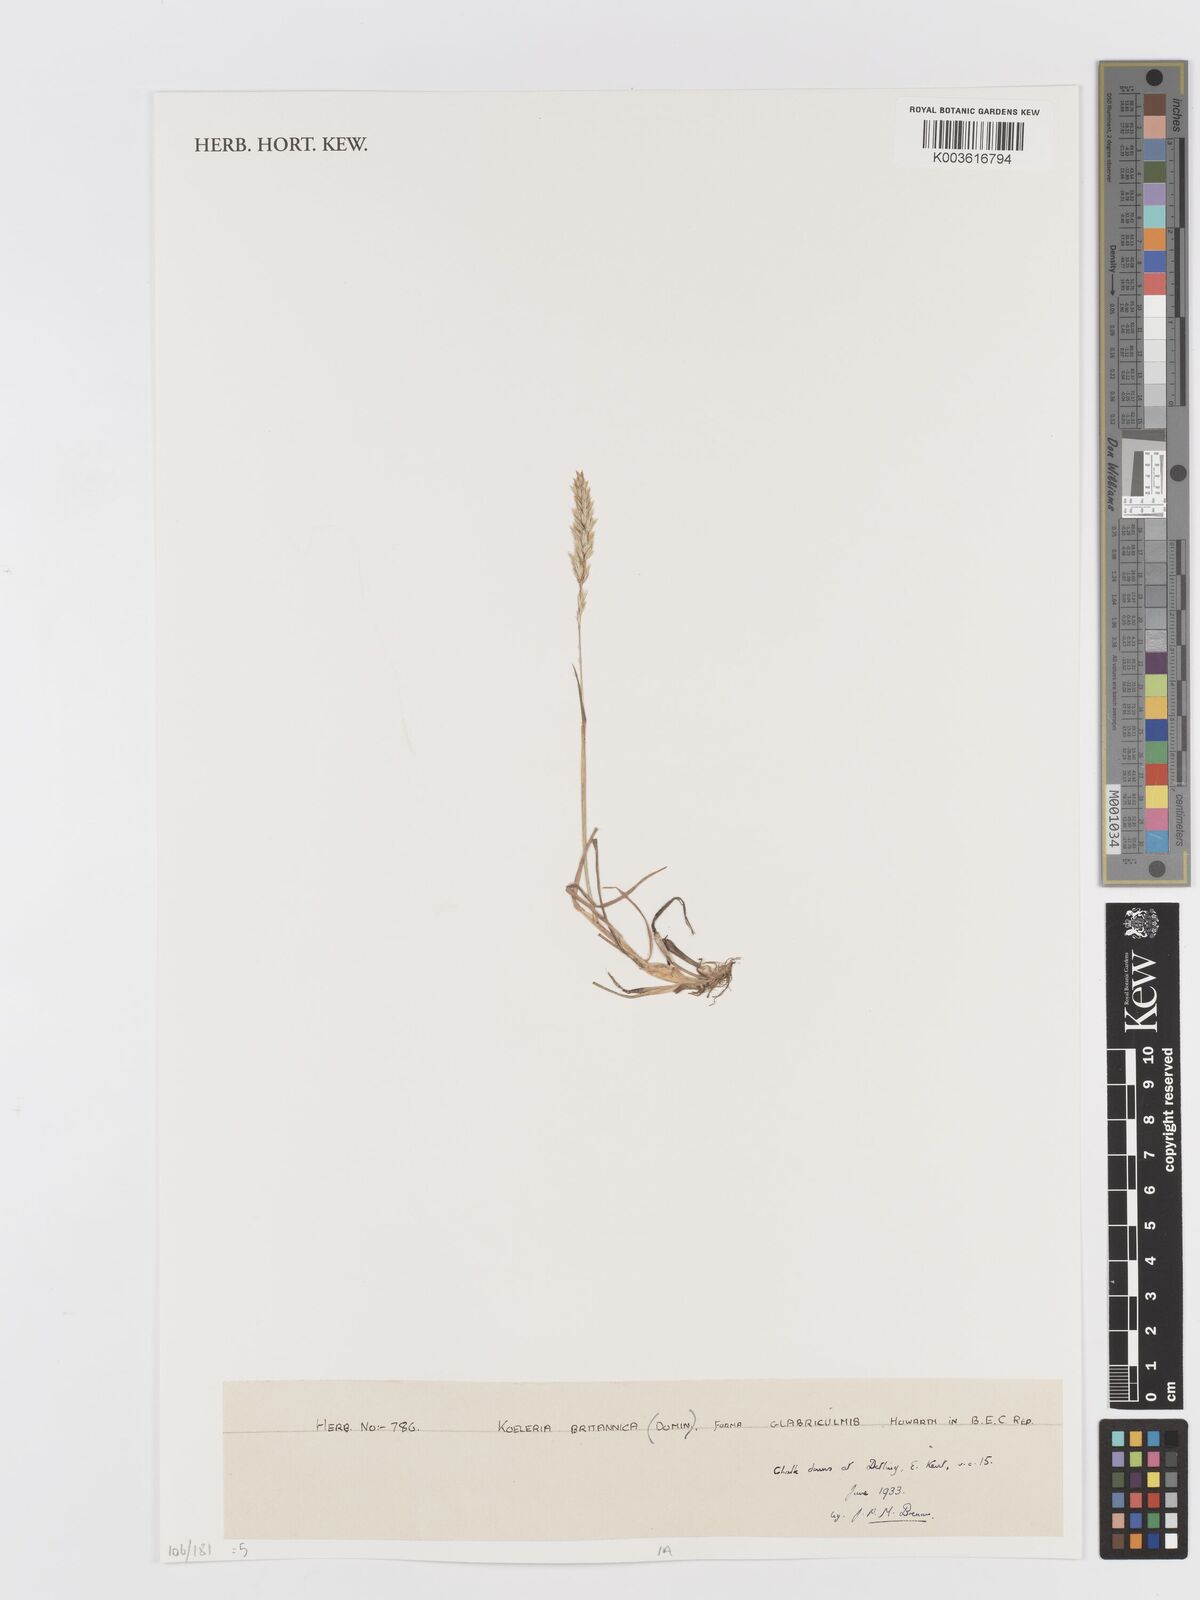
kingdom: Plantae
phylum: Tracheophyta
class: Liliopsida
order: Poales
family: Poaceae
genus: Koeleria
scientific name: Koeleria macrantha
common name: Crested hair-grass
